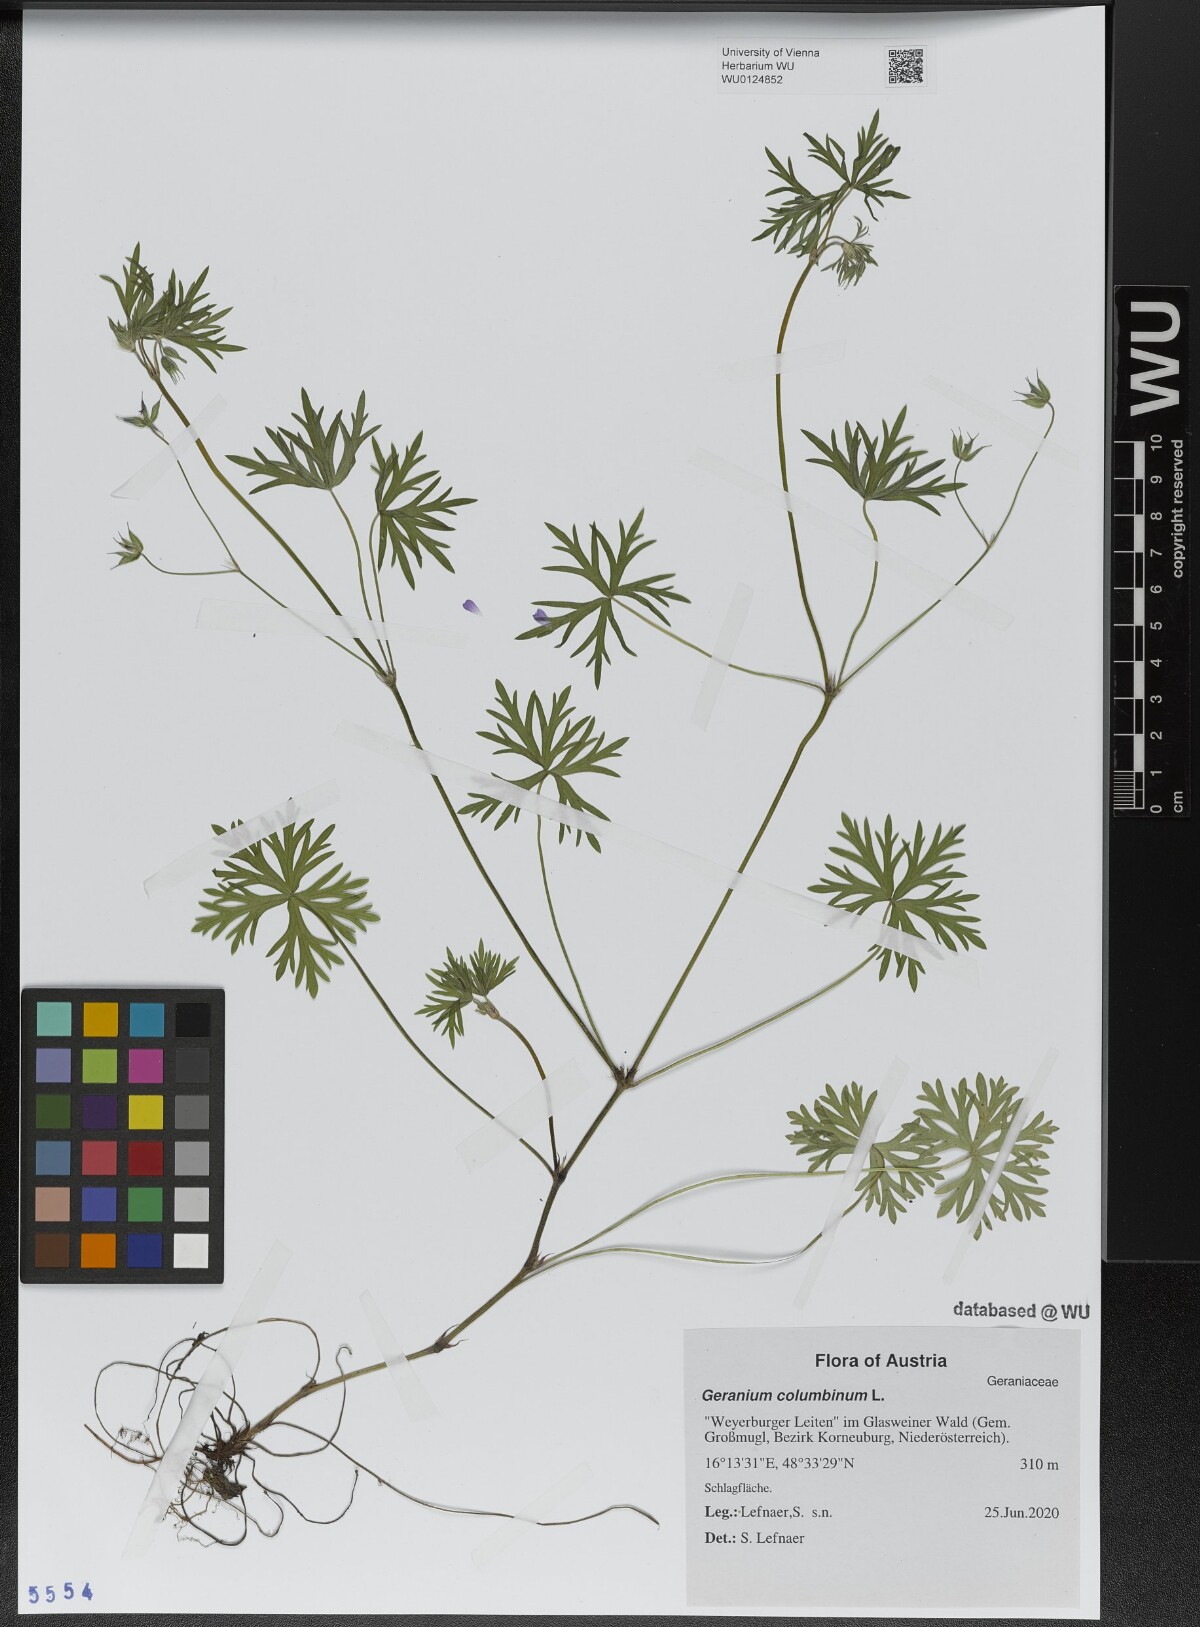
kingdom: Plantae
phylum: Tracheophyta
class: Magnoliopsida
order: Geraniales
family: Geraniaceae
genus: Geranium
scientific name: Geranium columbinum
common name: Long-stalked crane's-bill
